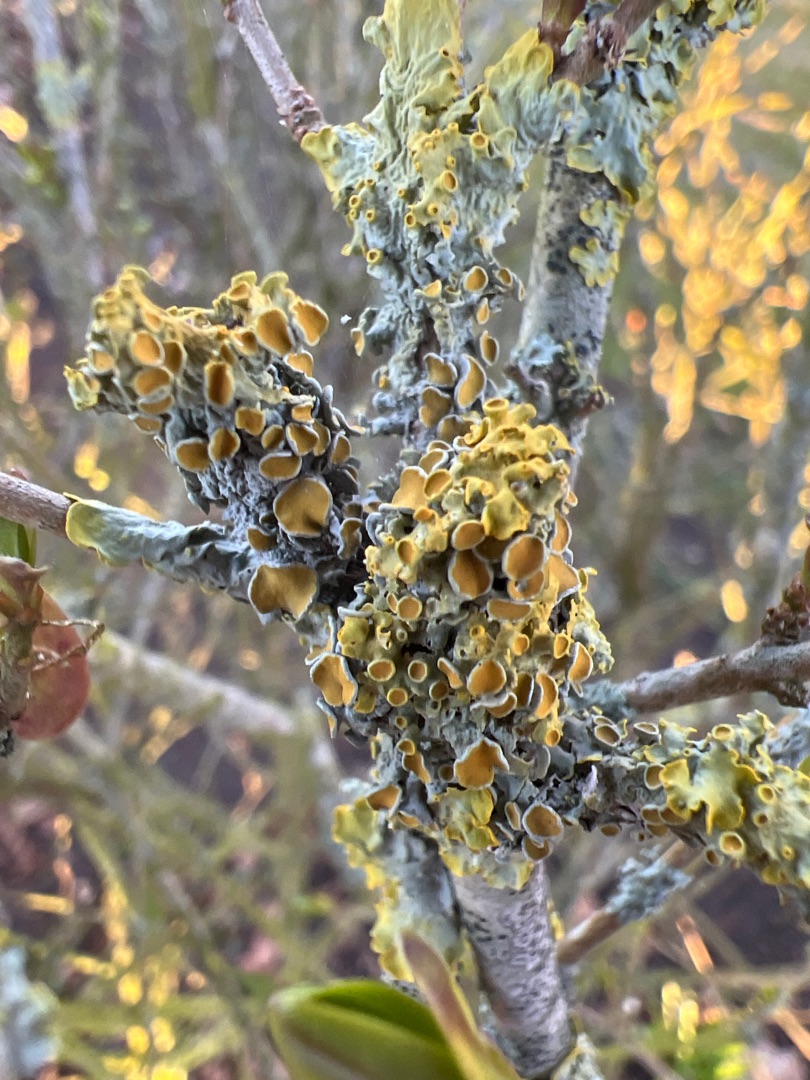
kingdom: Fungi
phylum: Ascomycota
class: Lecanoromycetes
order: Teloschistales
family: Teloschistaceae
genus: Xanthoria
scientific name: Xanthoria parietina
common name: Almindelig væggelav
